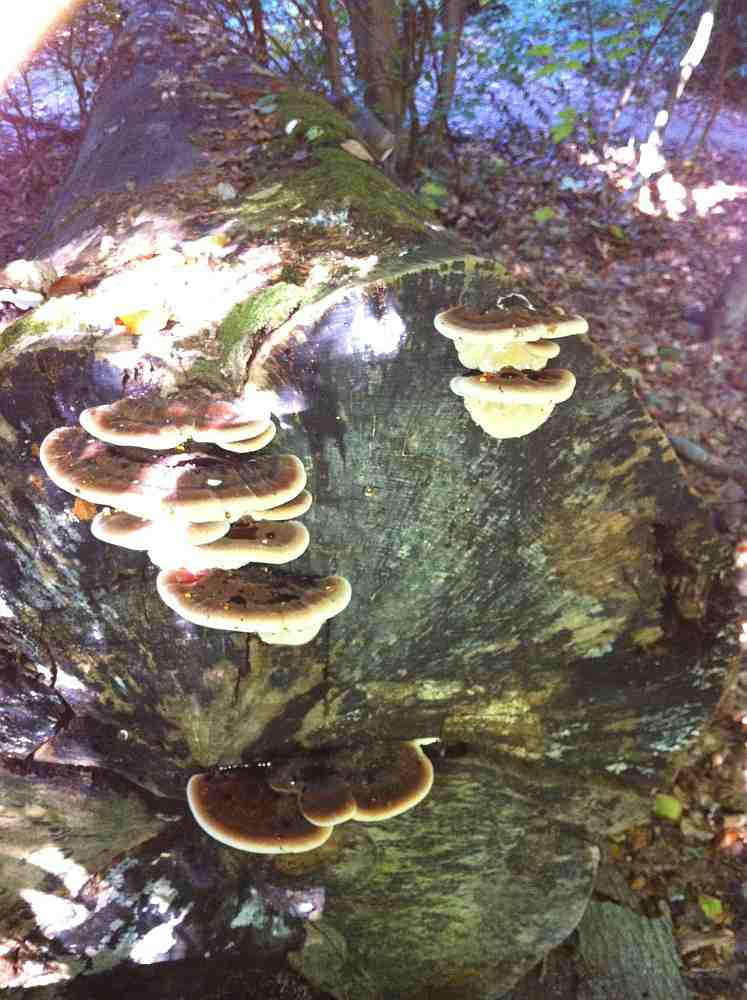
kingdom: Fungi
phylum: Basidiomycota
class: Agaricomycetes
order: Polyporales
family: Ischnodermataceae
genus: Ischnoderma
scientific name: Ischnoderma resinosum
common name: løv-tjæreporesvamp
